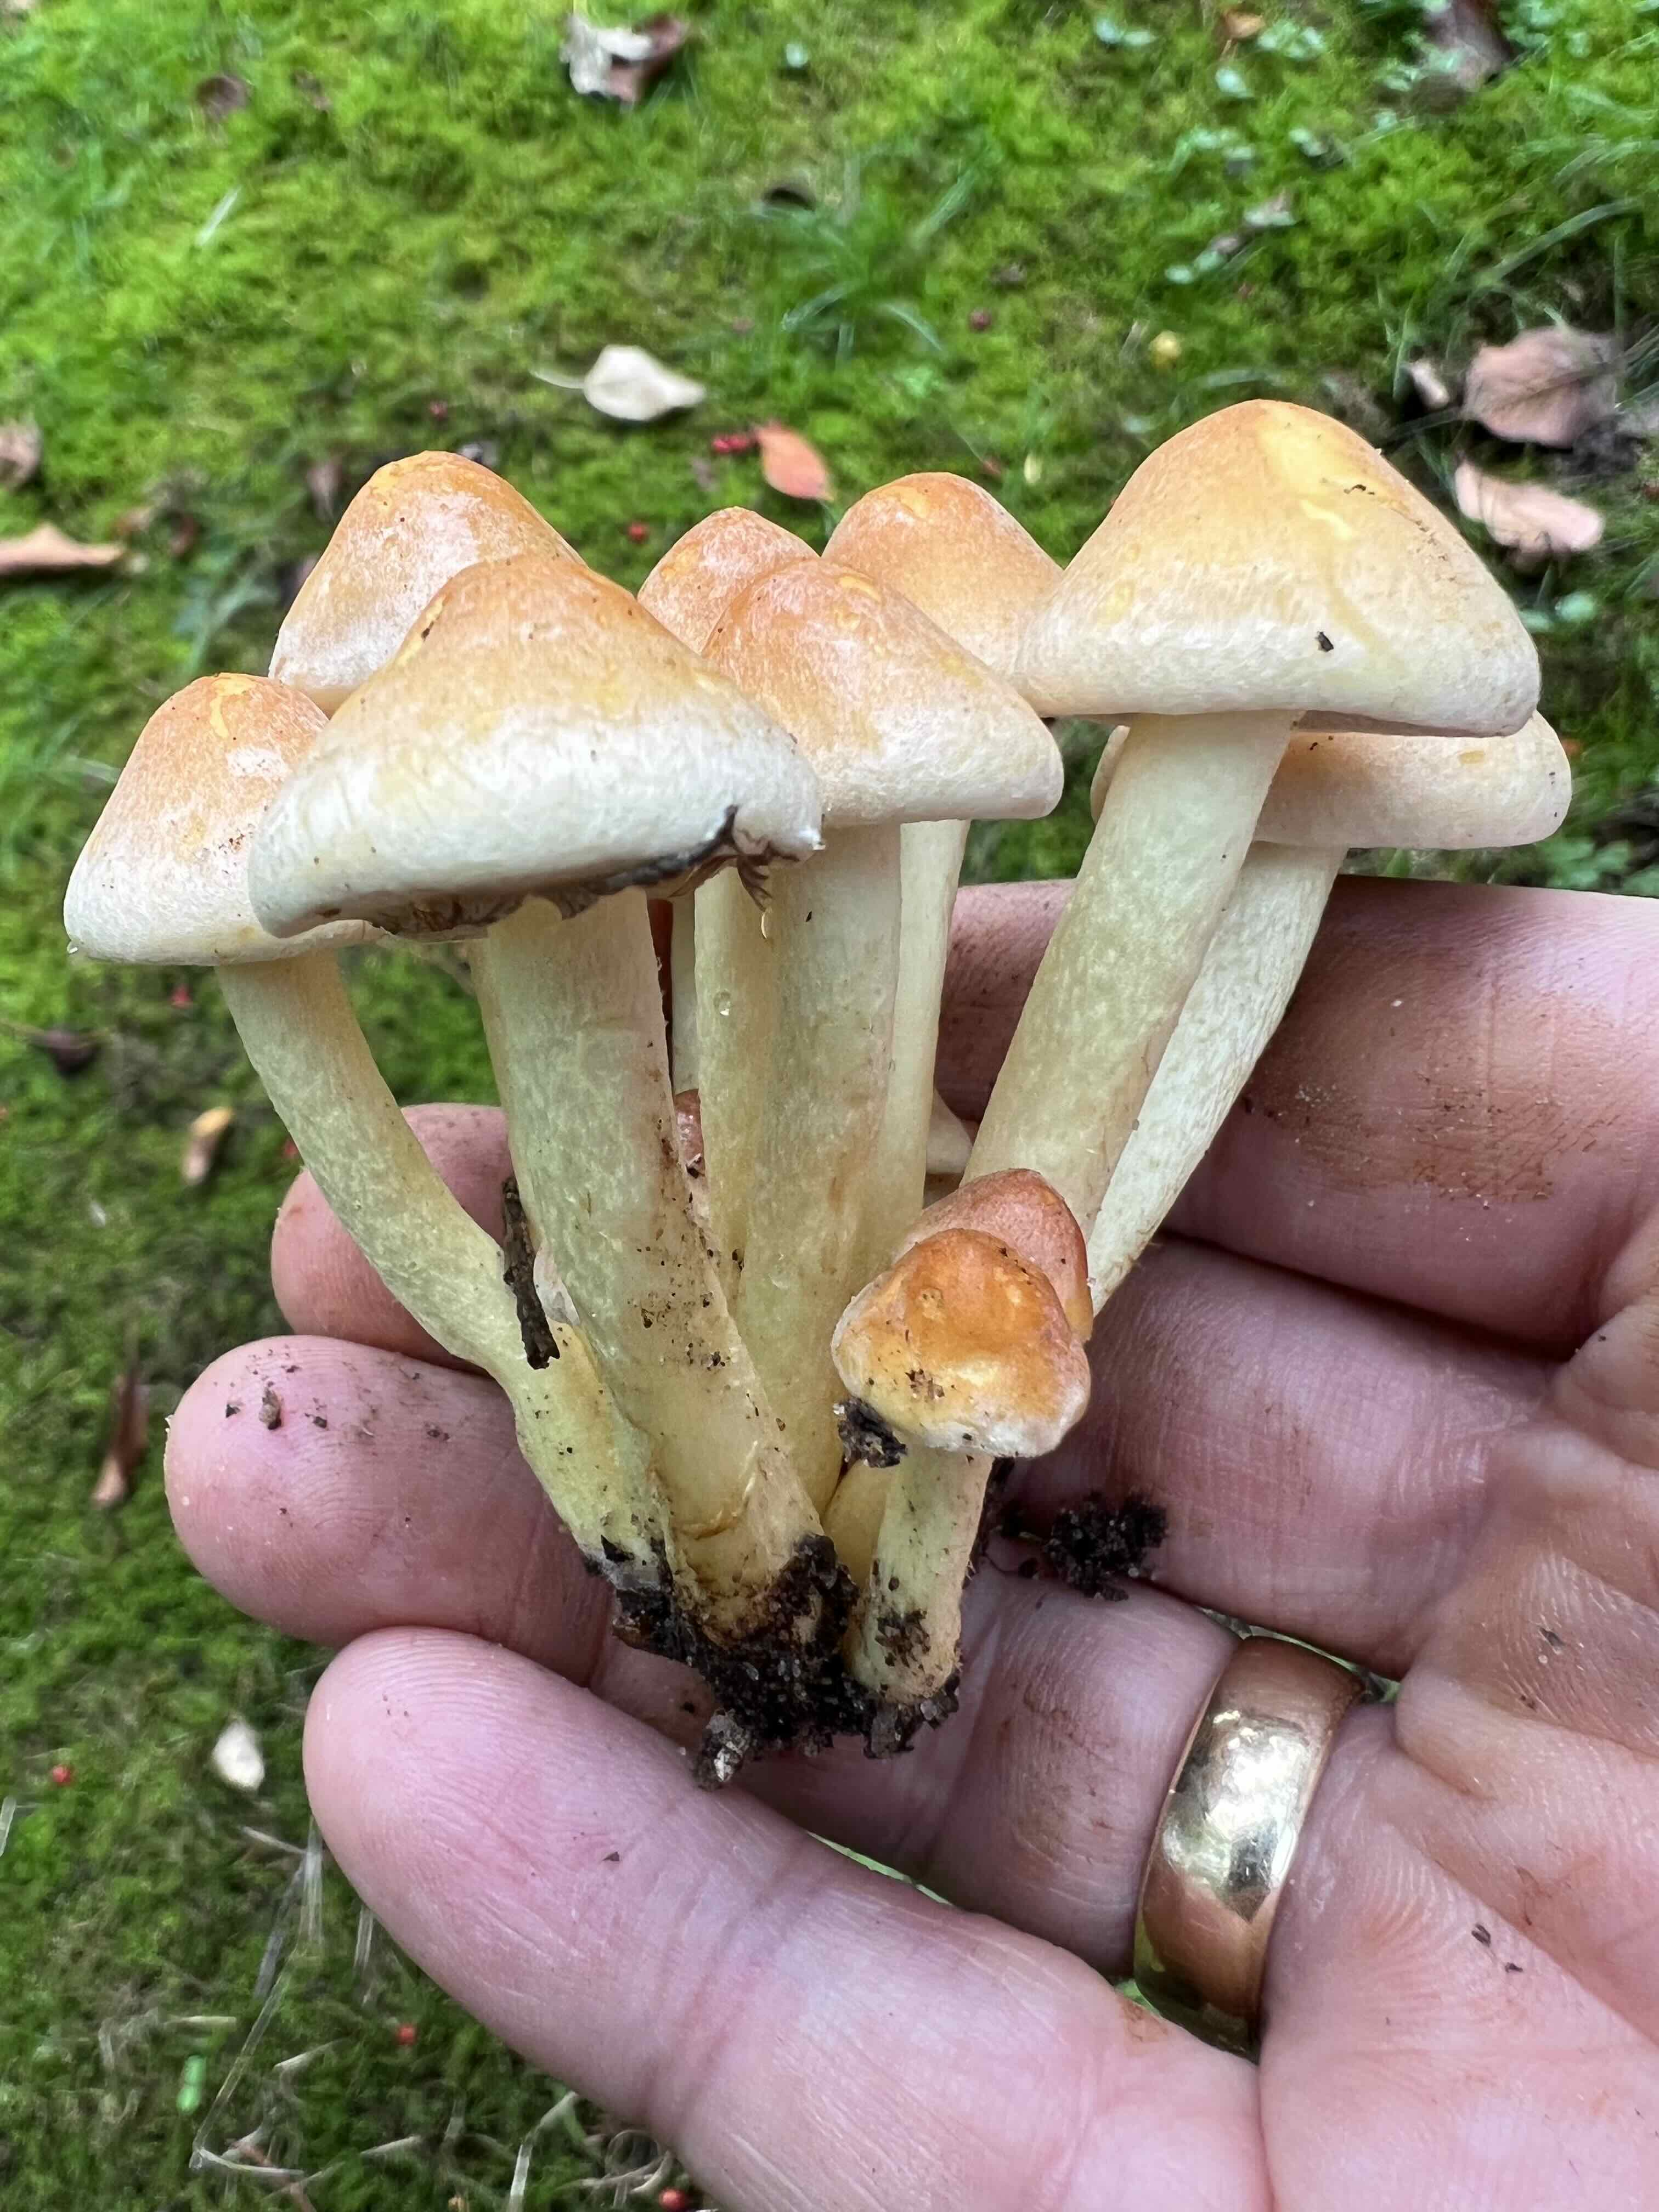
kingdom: Fungi
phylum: Basidiomycota
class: Agaricomycetes
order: Agaricales
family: Strophariaceae
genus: Hypholoma
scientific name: Hypholoma fasciculare
